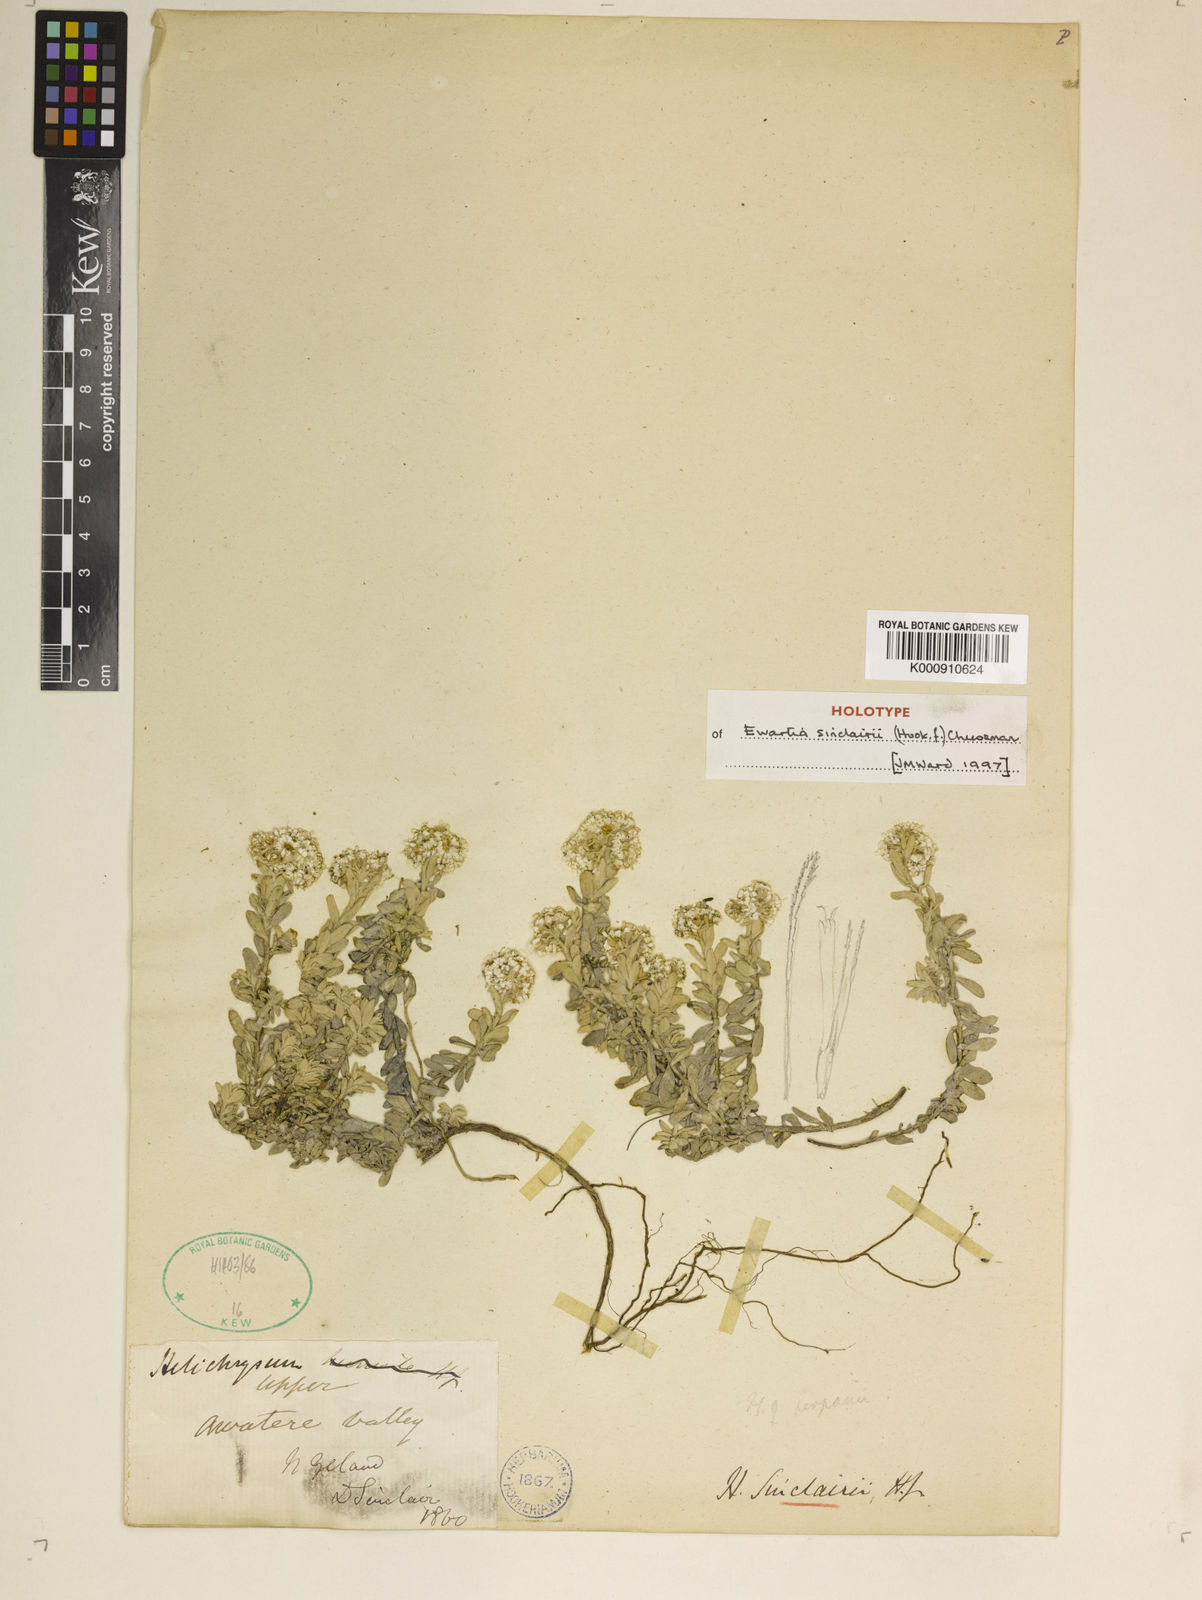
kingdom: Plantae
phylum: Tracheophyta
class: Magnoliopsida
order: Asterales
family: Asteraceae
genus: Ewartiothamnus
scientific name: Ewartiothamnus sinclairii
